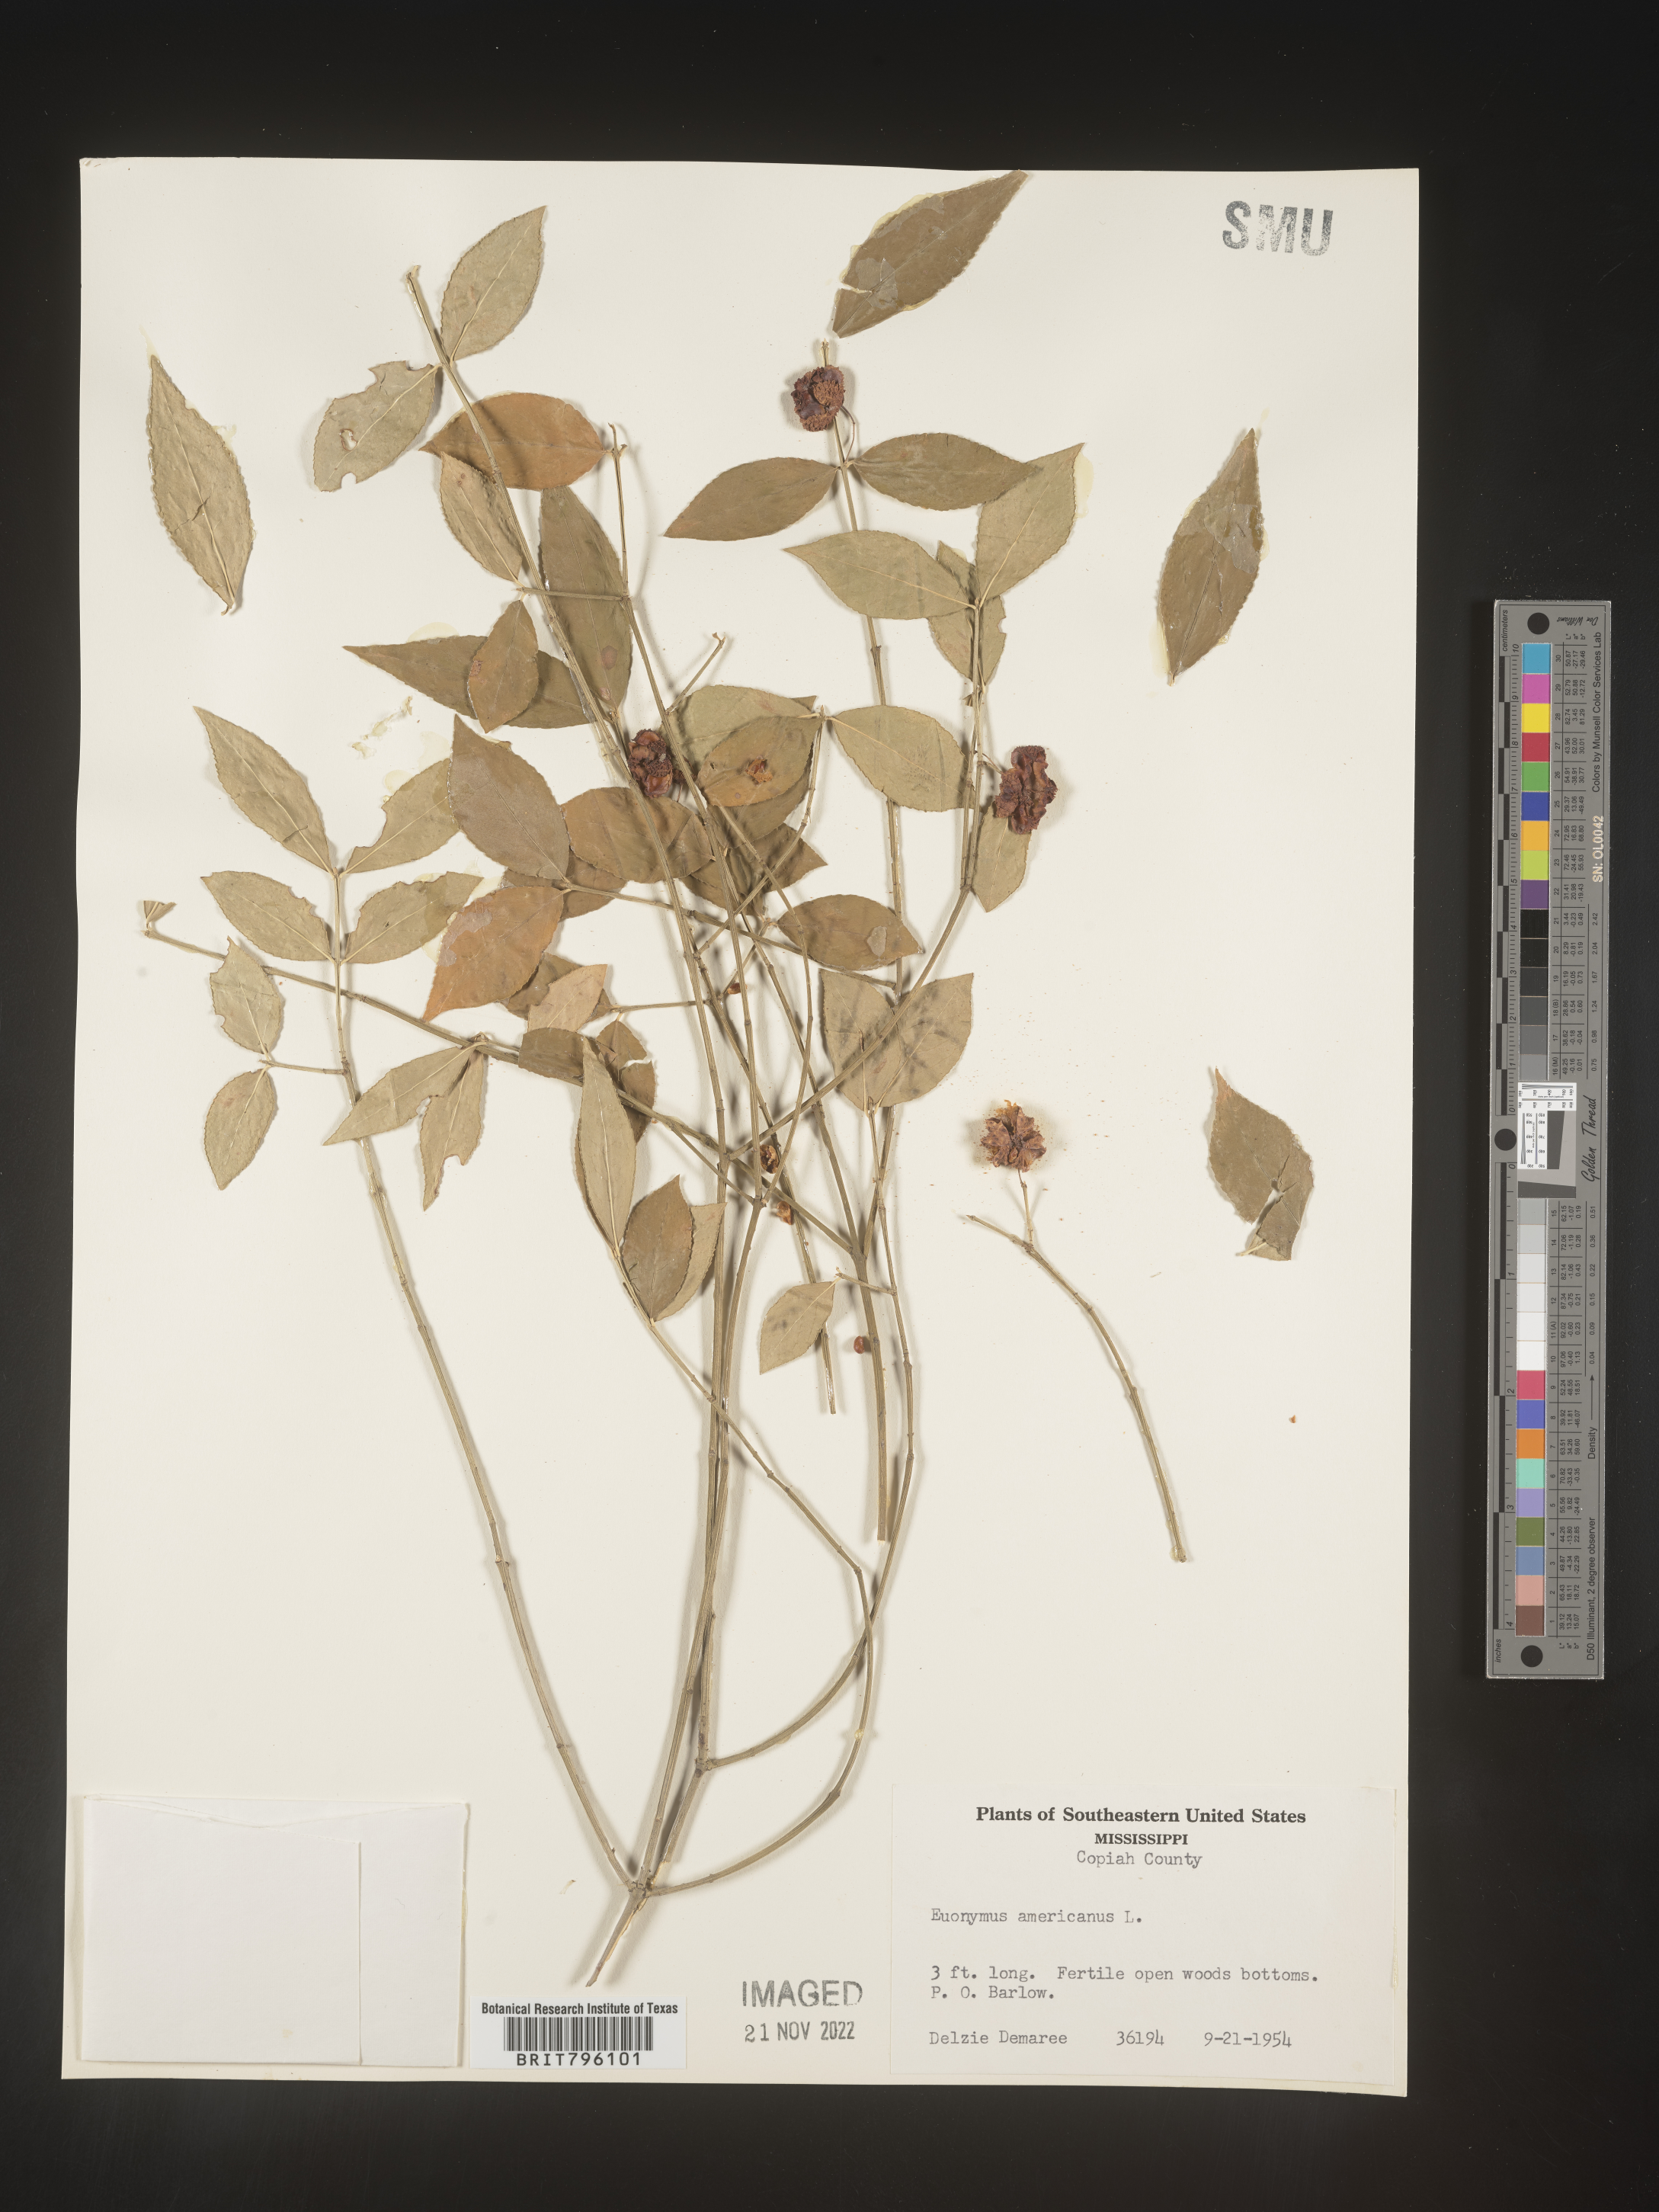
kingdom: Plantae
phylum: Tracheophyta
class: Magnoliopsida
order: Celastrales
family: Celastraceae
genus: Euonymus
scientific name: Euonymus americanus
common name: Bursting-heart
